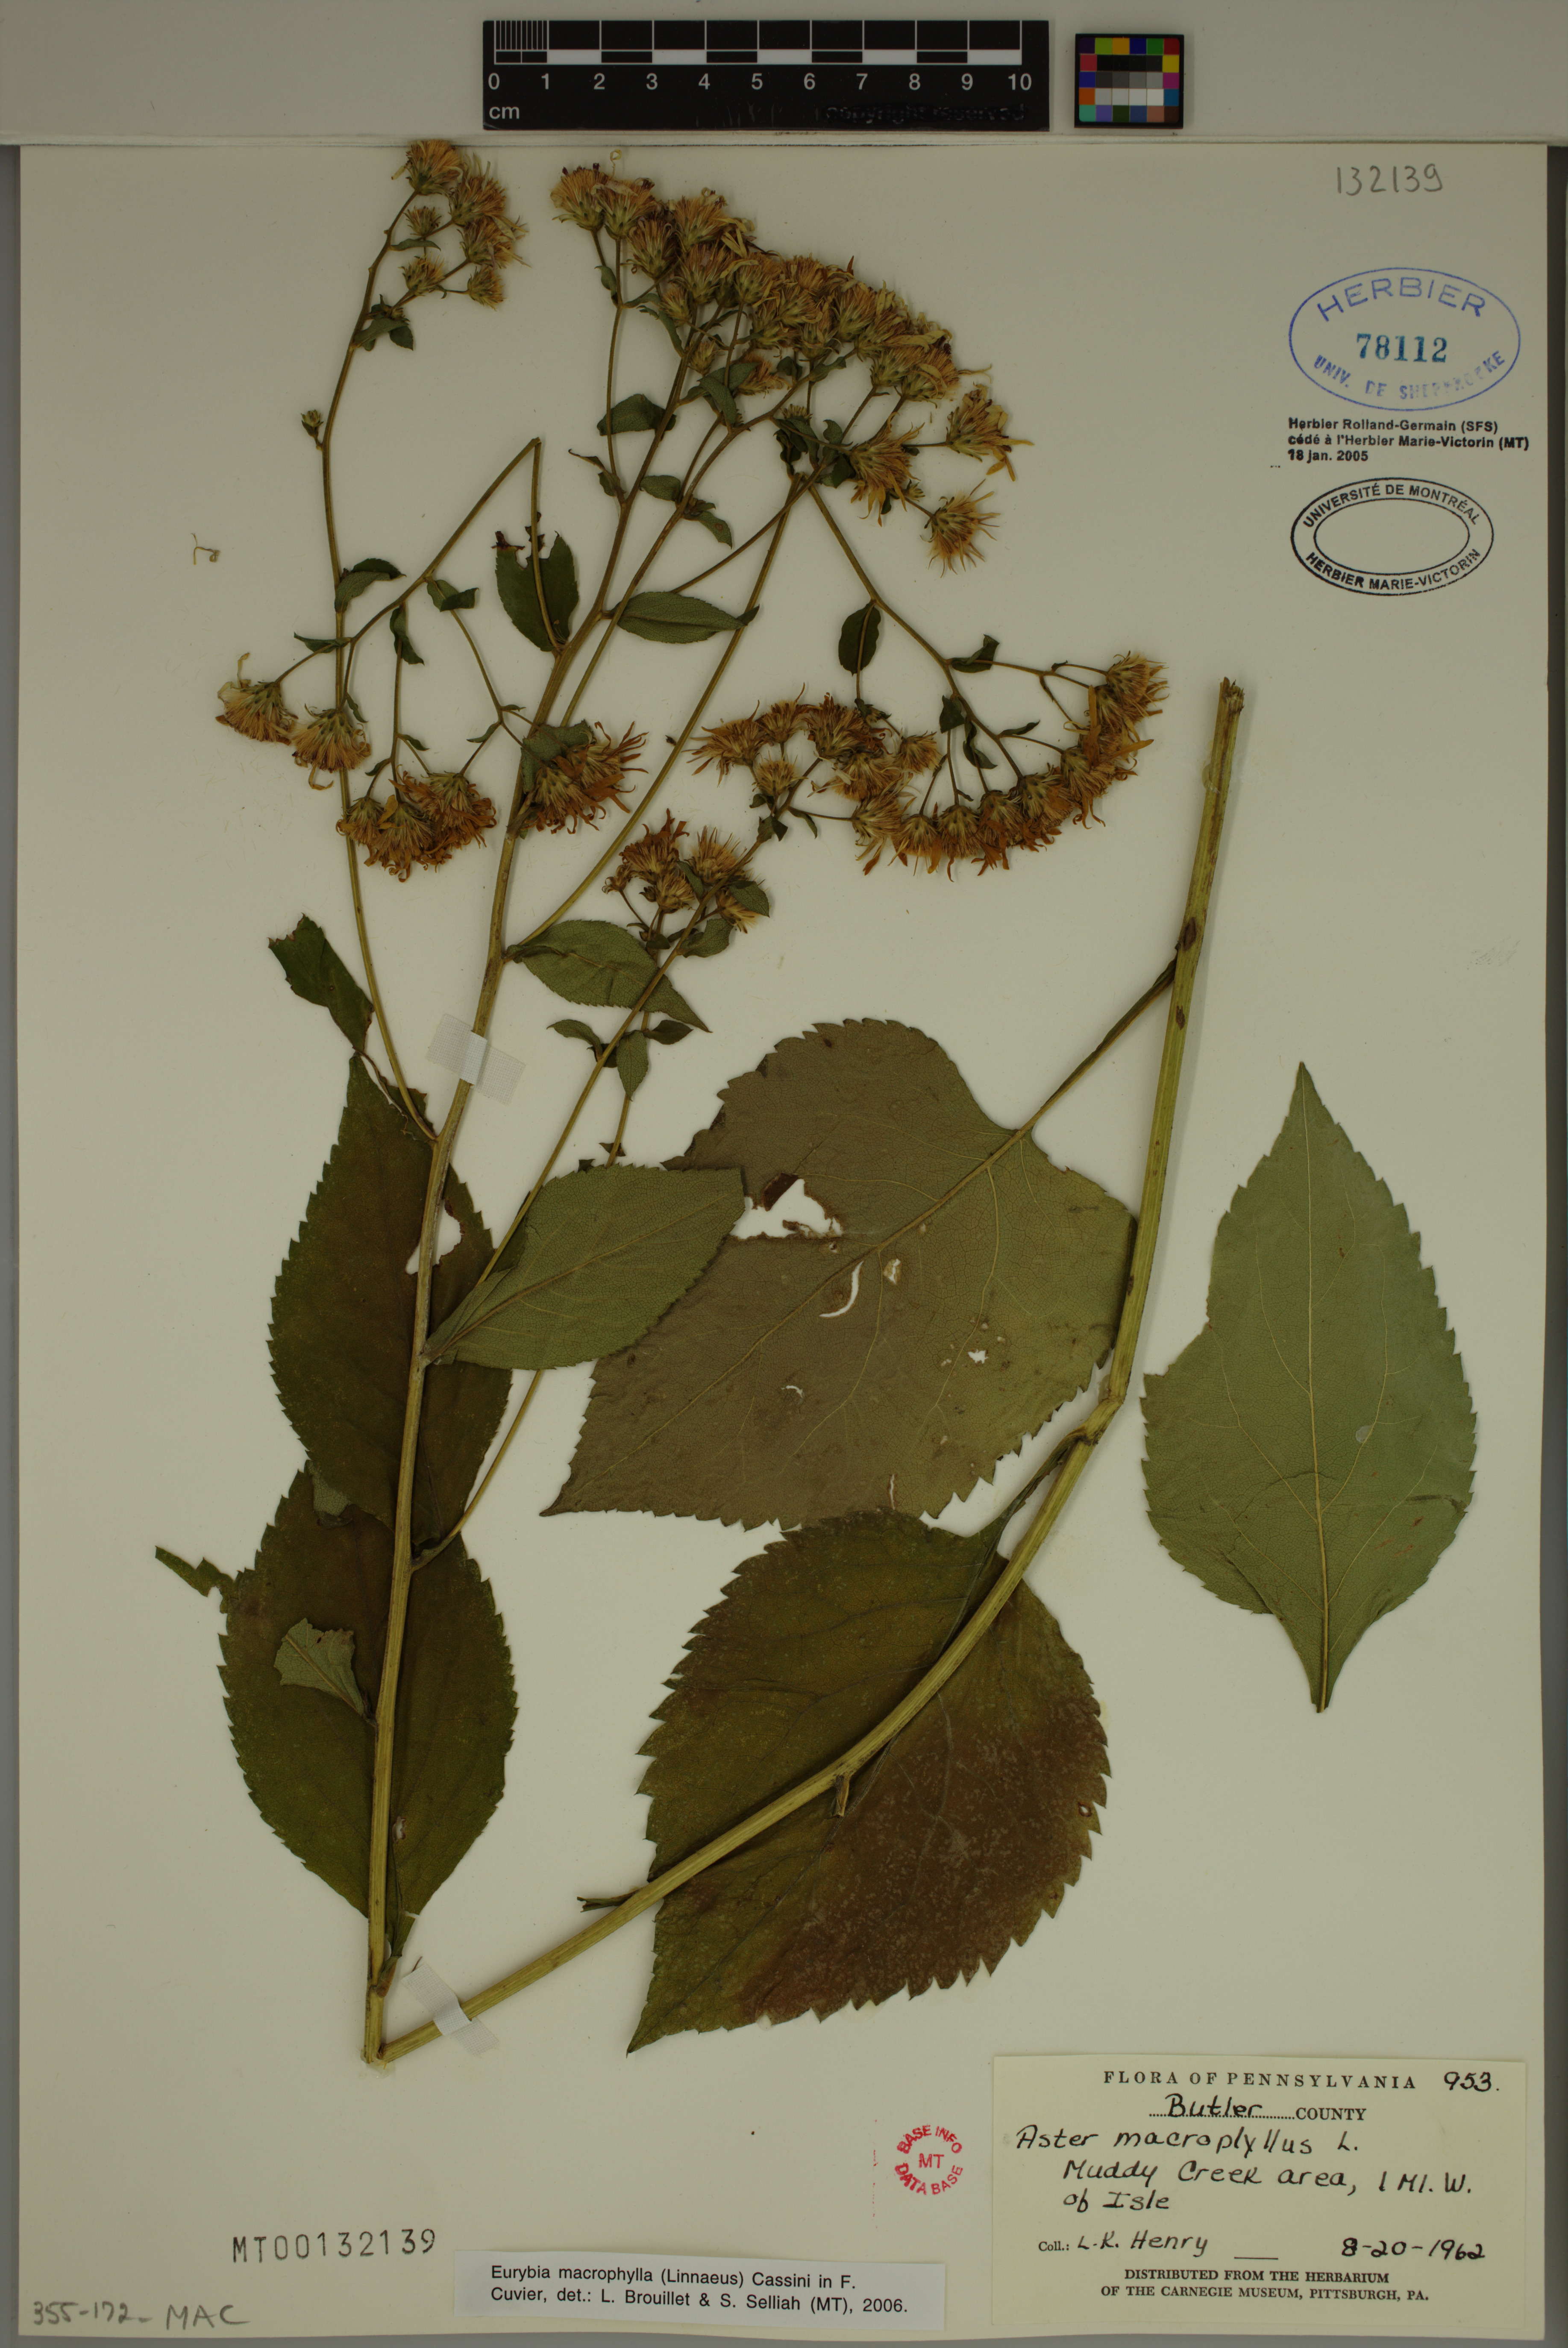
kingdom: Plantae
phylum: Tracheophyta
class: Magnoliopsida
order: Asterales
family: Asteraceae
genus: Eurybia
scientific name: Eurybia macrophylla
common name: Big-leaved aster
